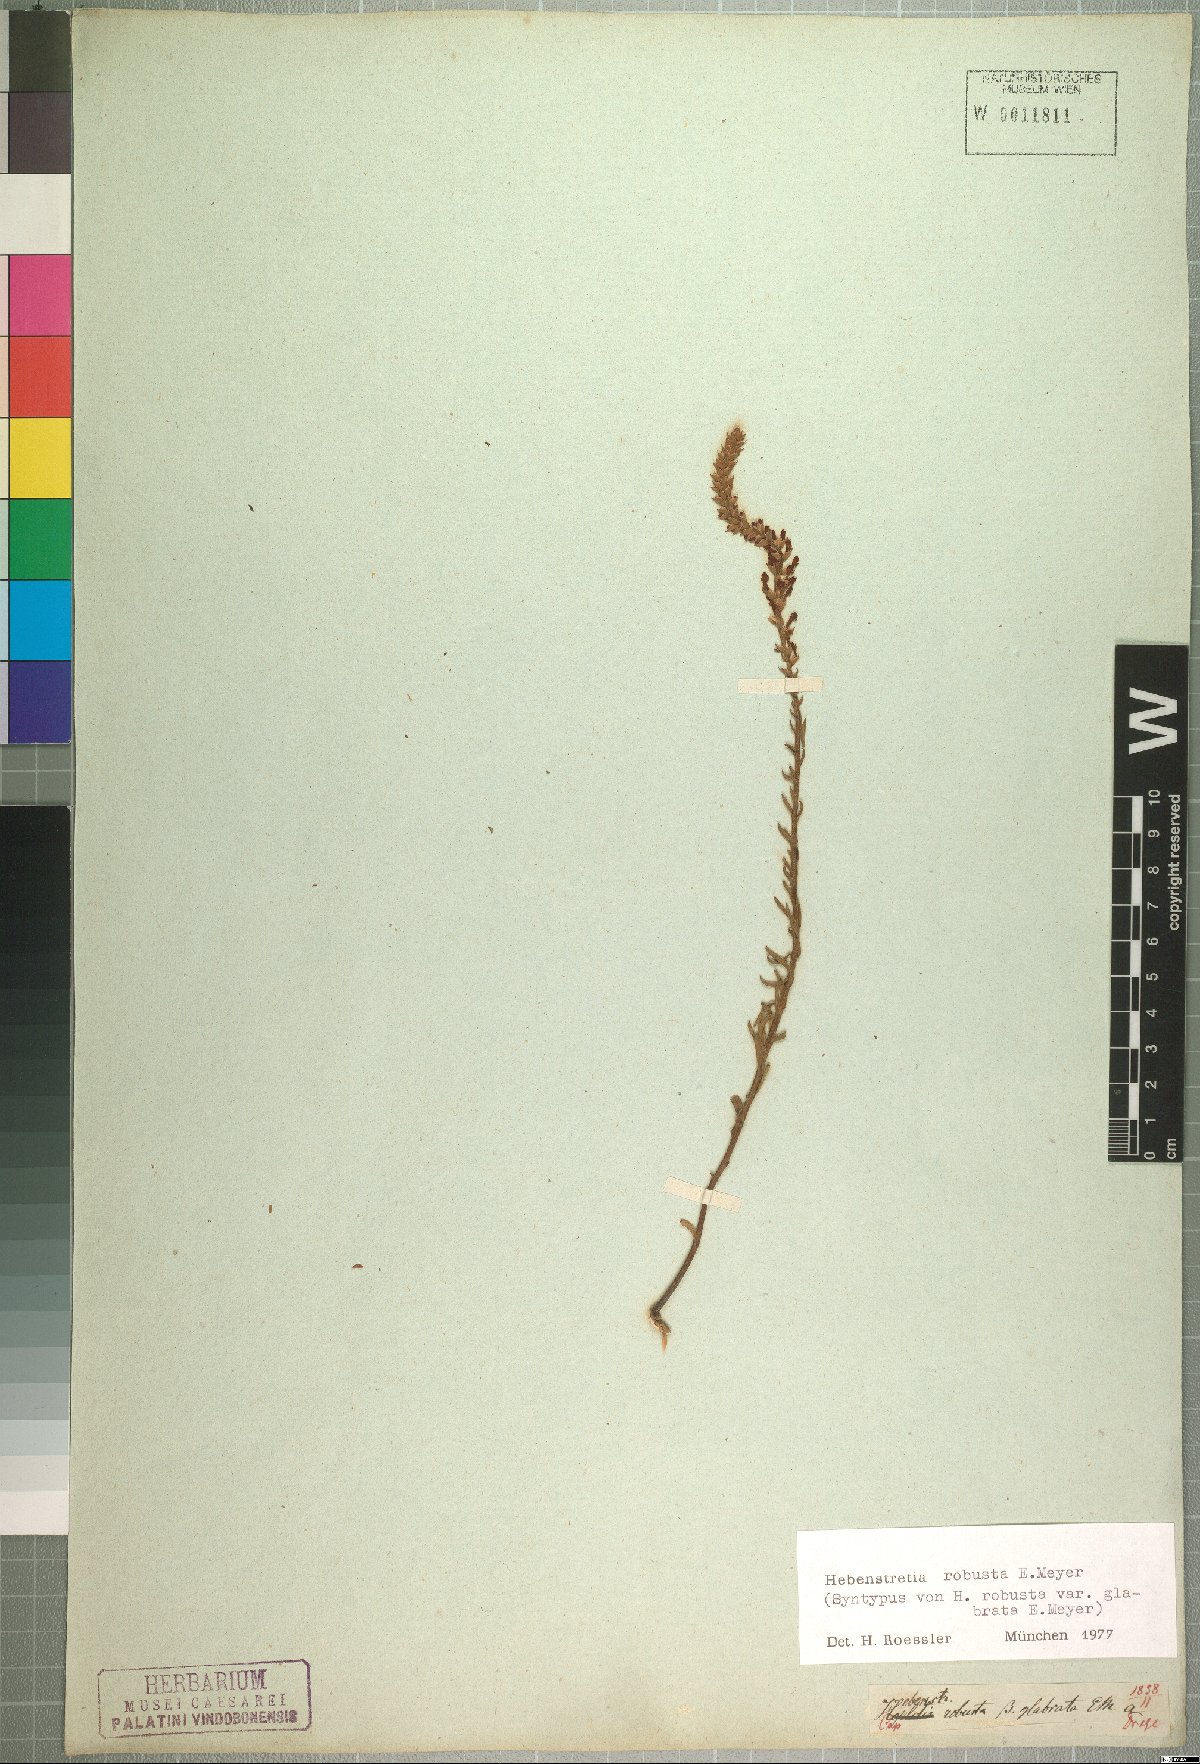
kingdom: Plantae
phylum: Tracheophyta
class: Magnoliopsida
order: Lamiales
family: Scrophulariaceae
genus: Hebenstretia
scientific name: Hebenstretia robusta
